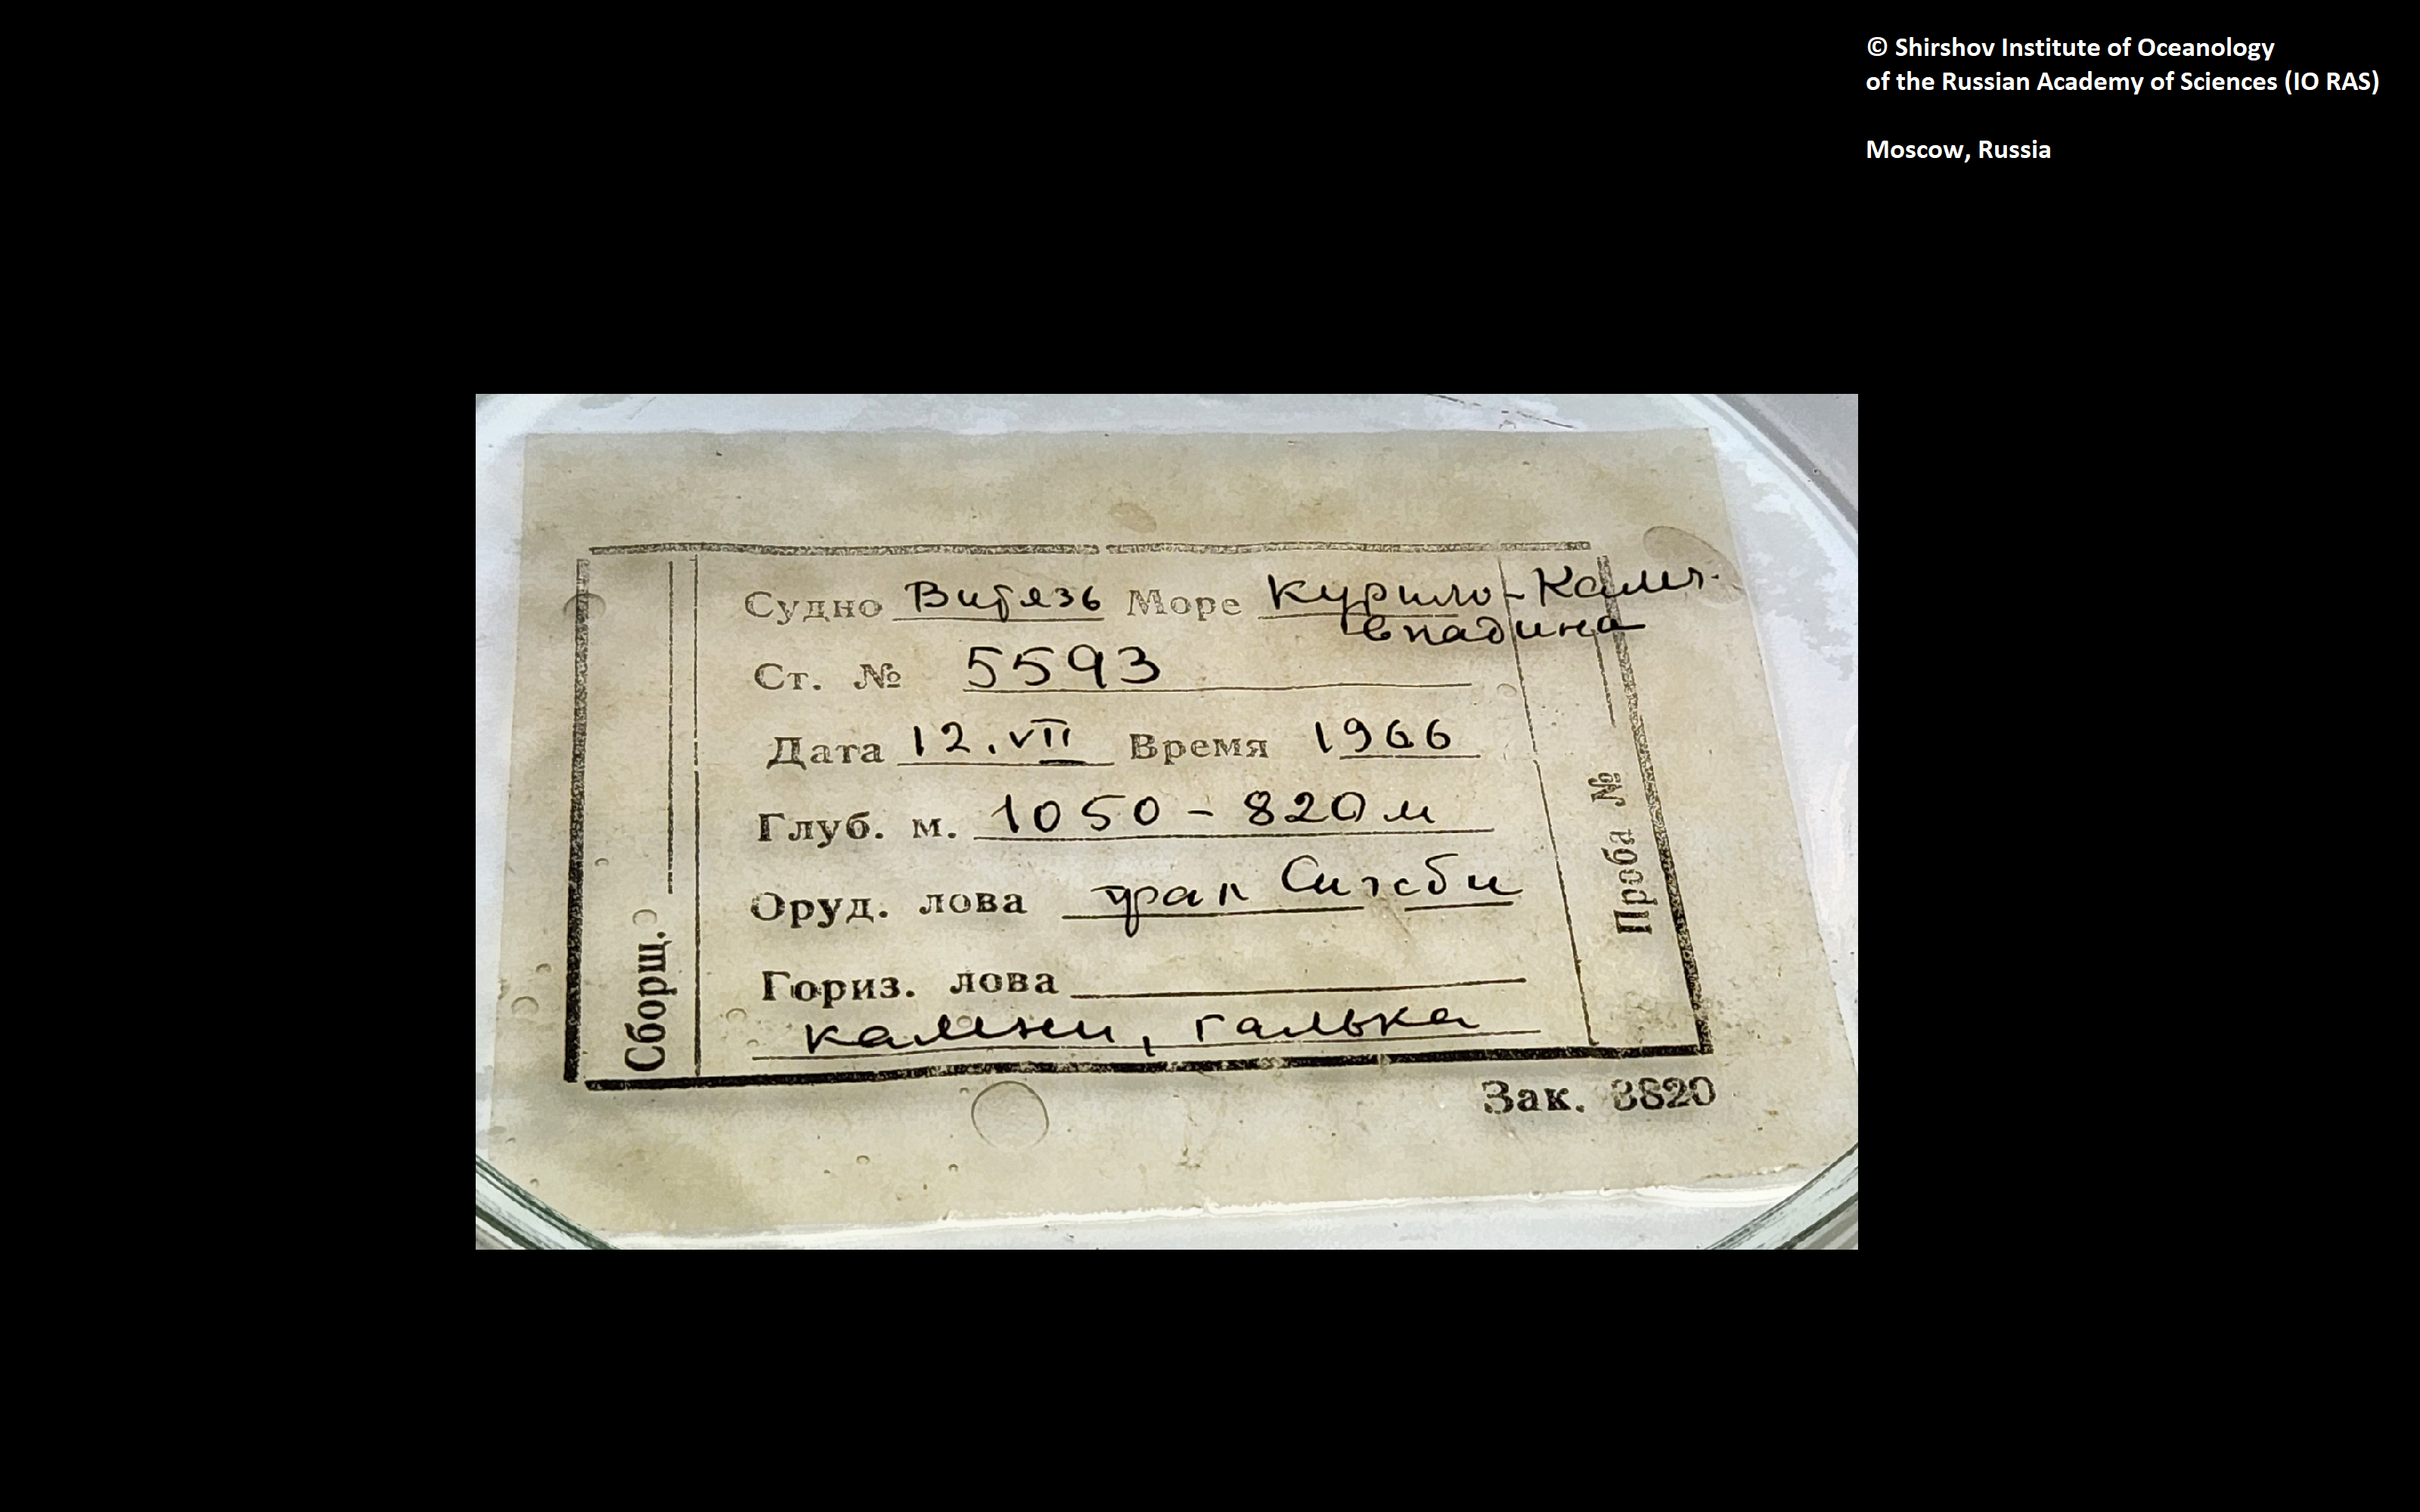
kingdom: Animalia
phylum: Annelida
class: Polychaeta
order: Sabellida
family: Serpulidae
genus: Hyalopomatus
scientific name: Hyalopomatus jirkovi
